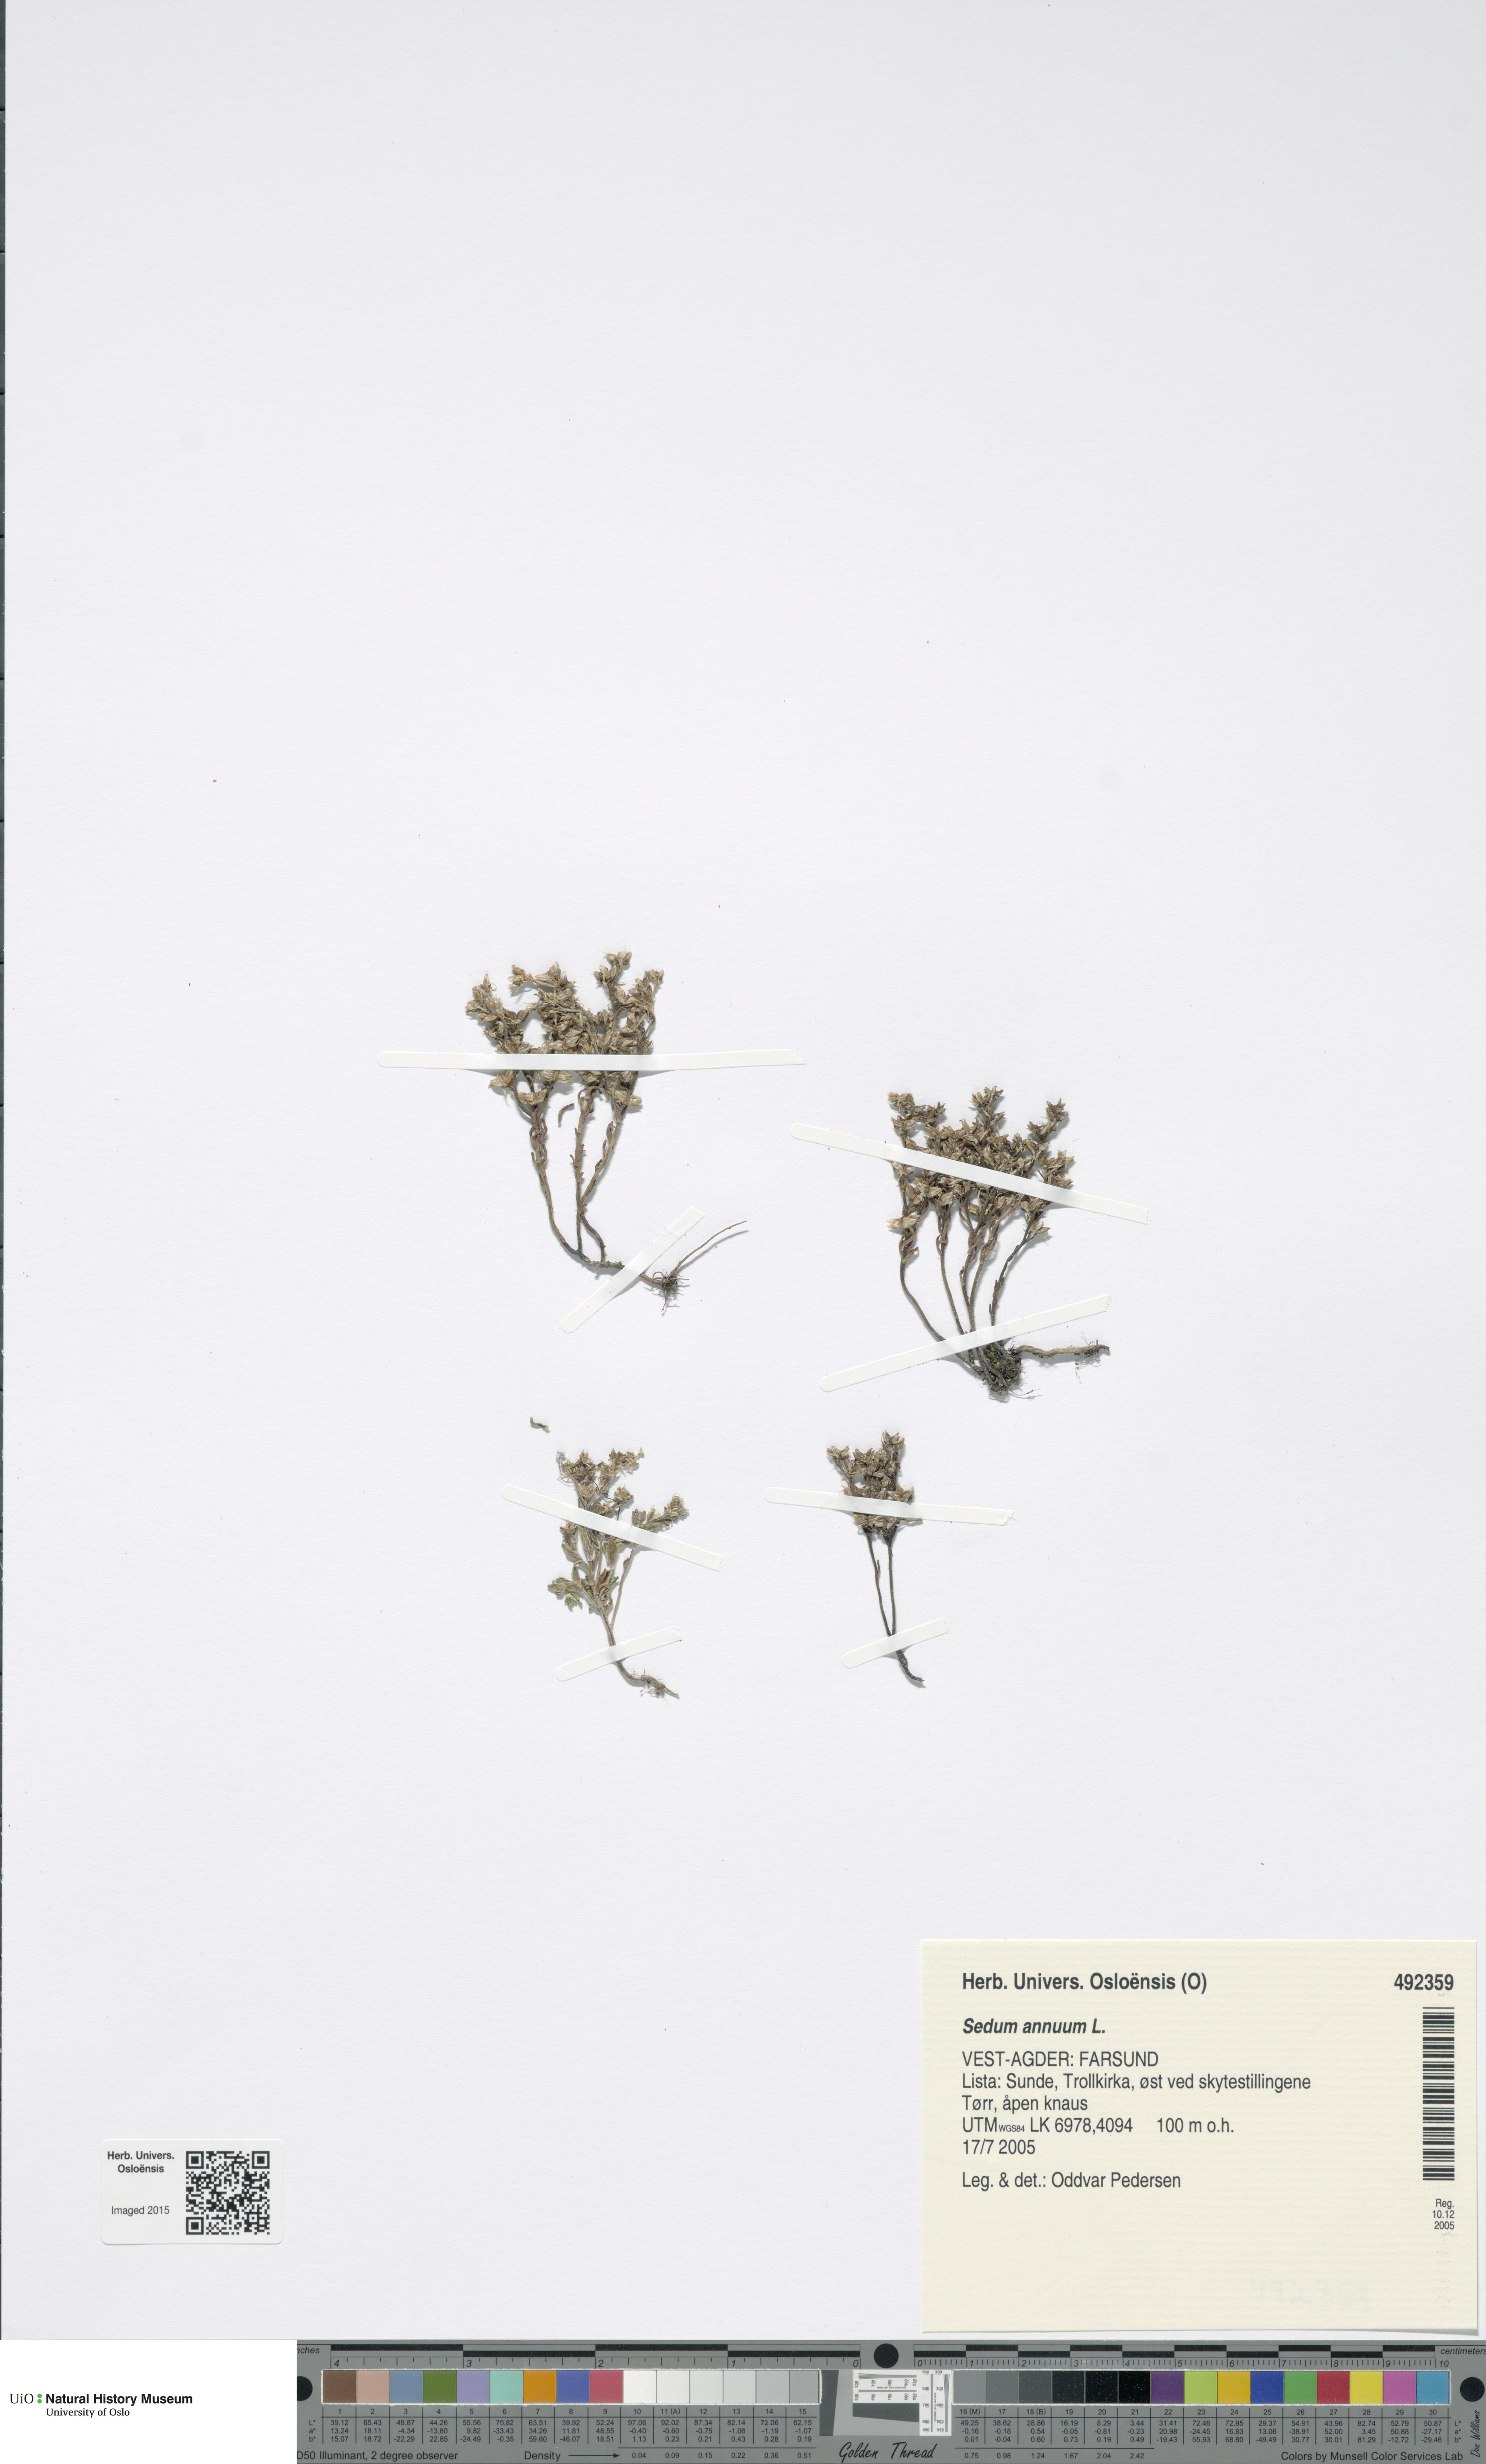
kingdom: Plantae
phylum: Tracheophyta
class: Magnoliopsida
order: Saxifragales
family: Crassulaceae
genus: Sedum
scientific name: Sedum annuum
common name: Annual stonecrop
